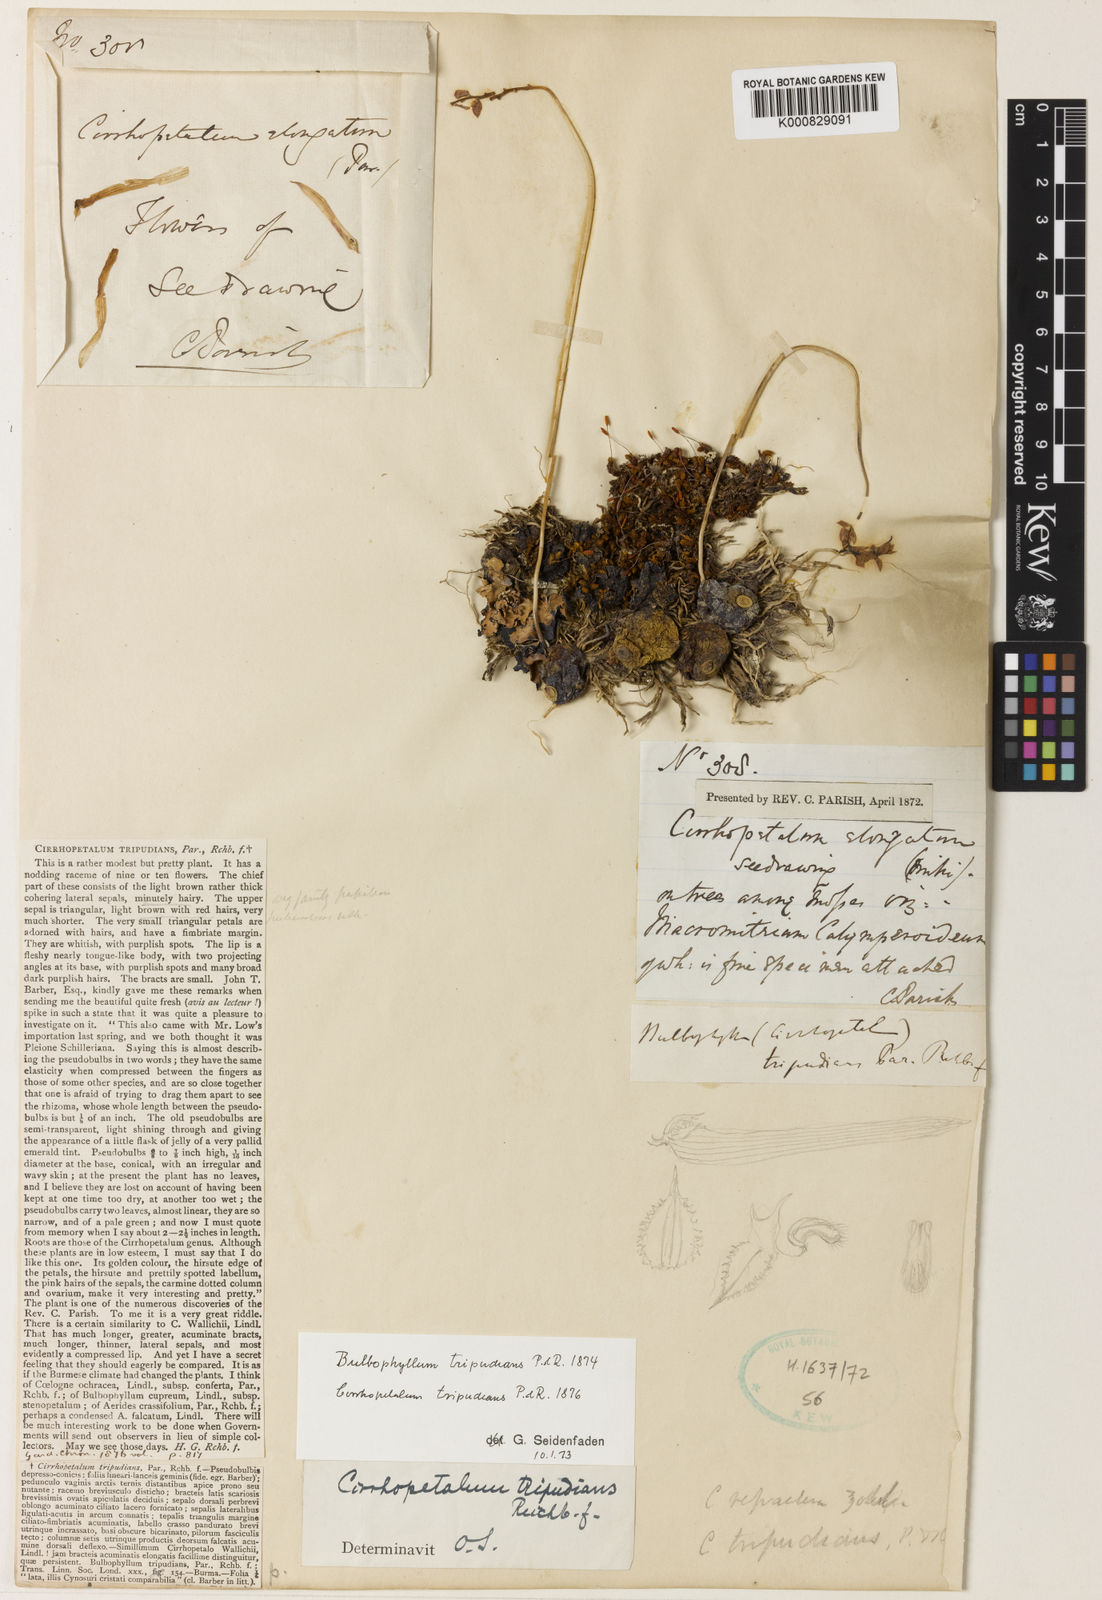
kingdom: Plantae
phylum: Tracheophyta
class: Liliopsida
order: Asparagales
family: Orchidaceae
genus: Bulbophyllum
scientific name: Bulbophyllum tripudians
